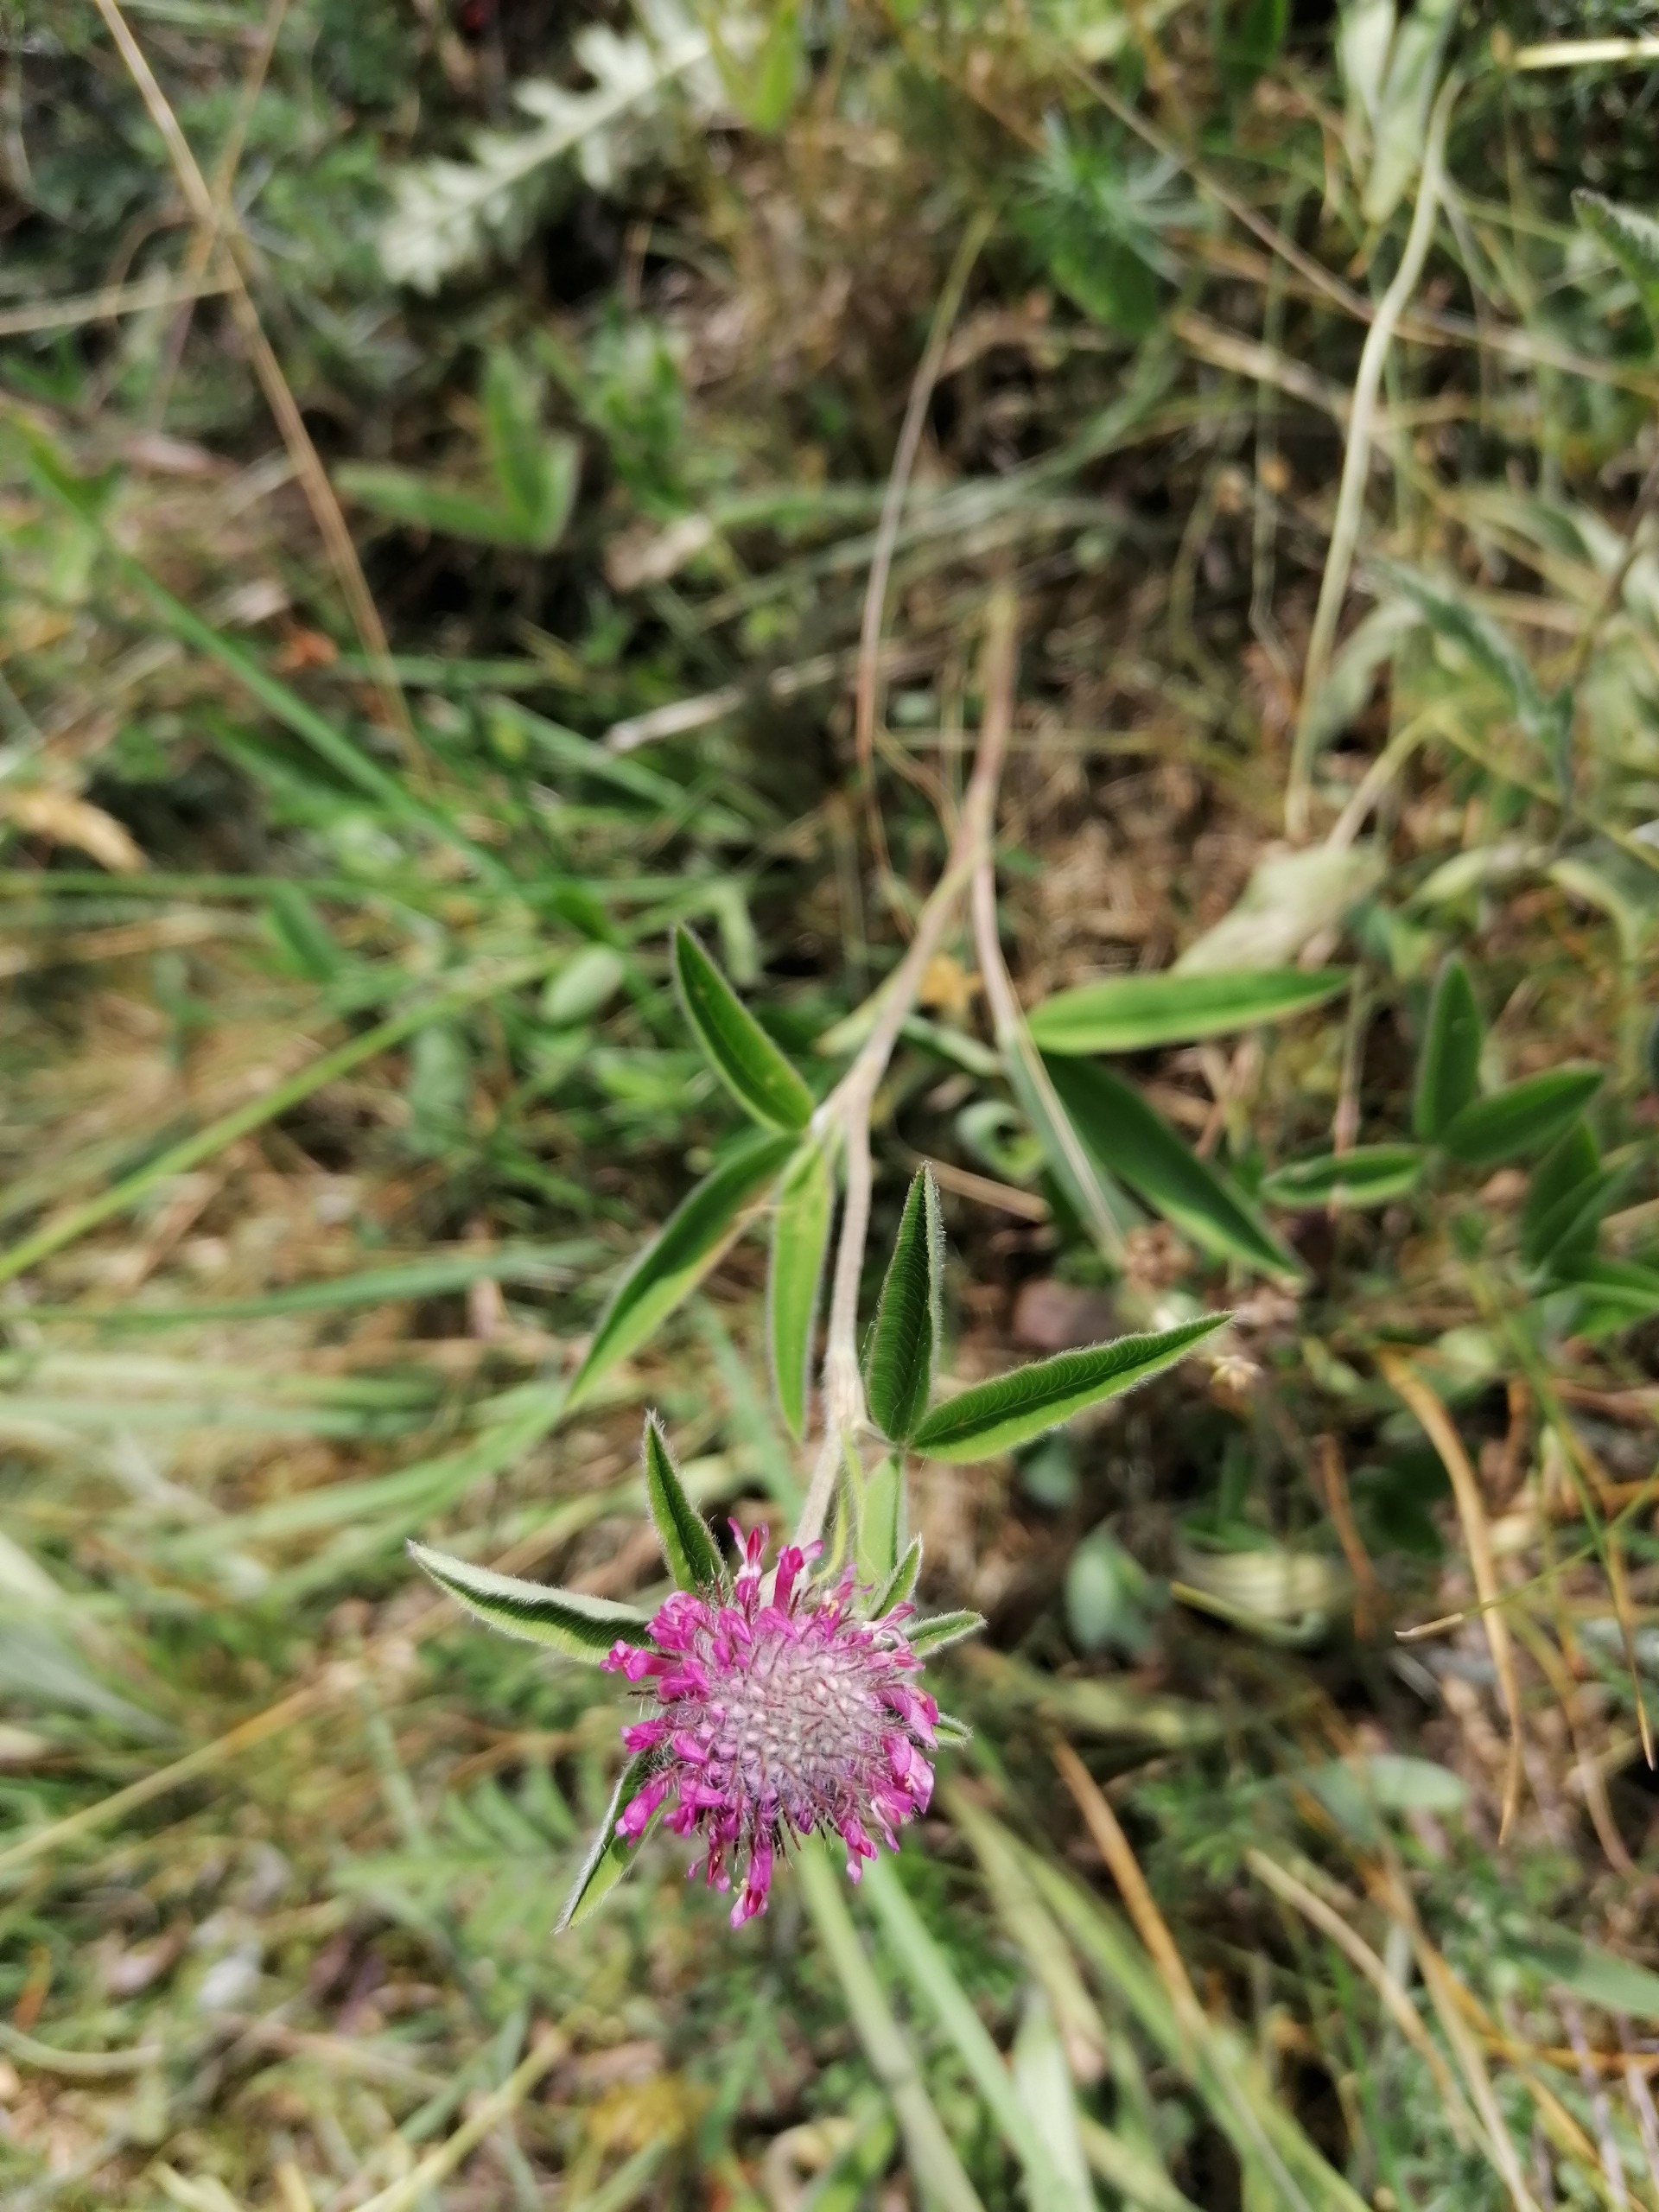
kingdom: Plantae
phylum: Tracheophyta
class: Magnoliopsida
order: Fabales
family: Fabaceae
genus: Trifolium
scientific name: Trifolium alpestre
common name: Skov-kløver
